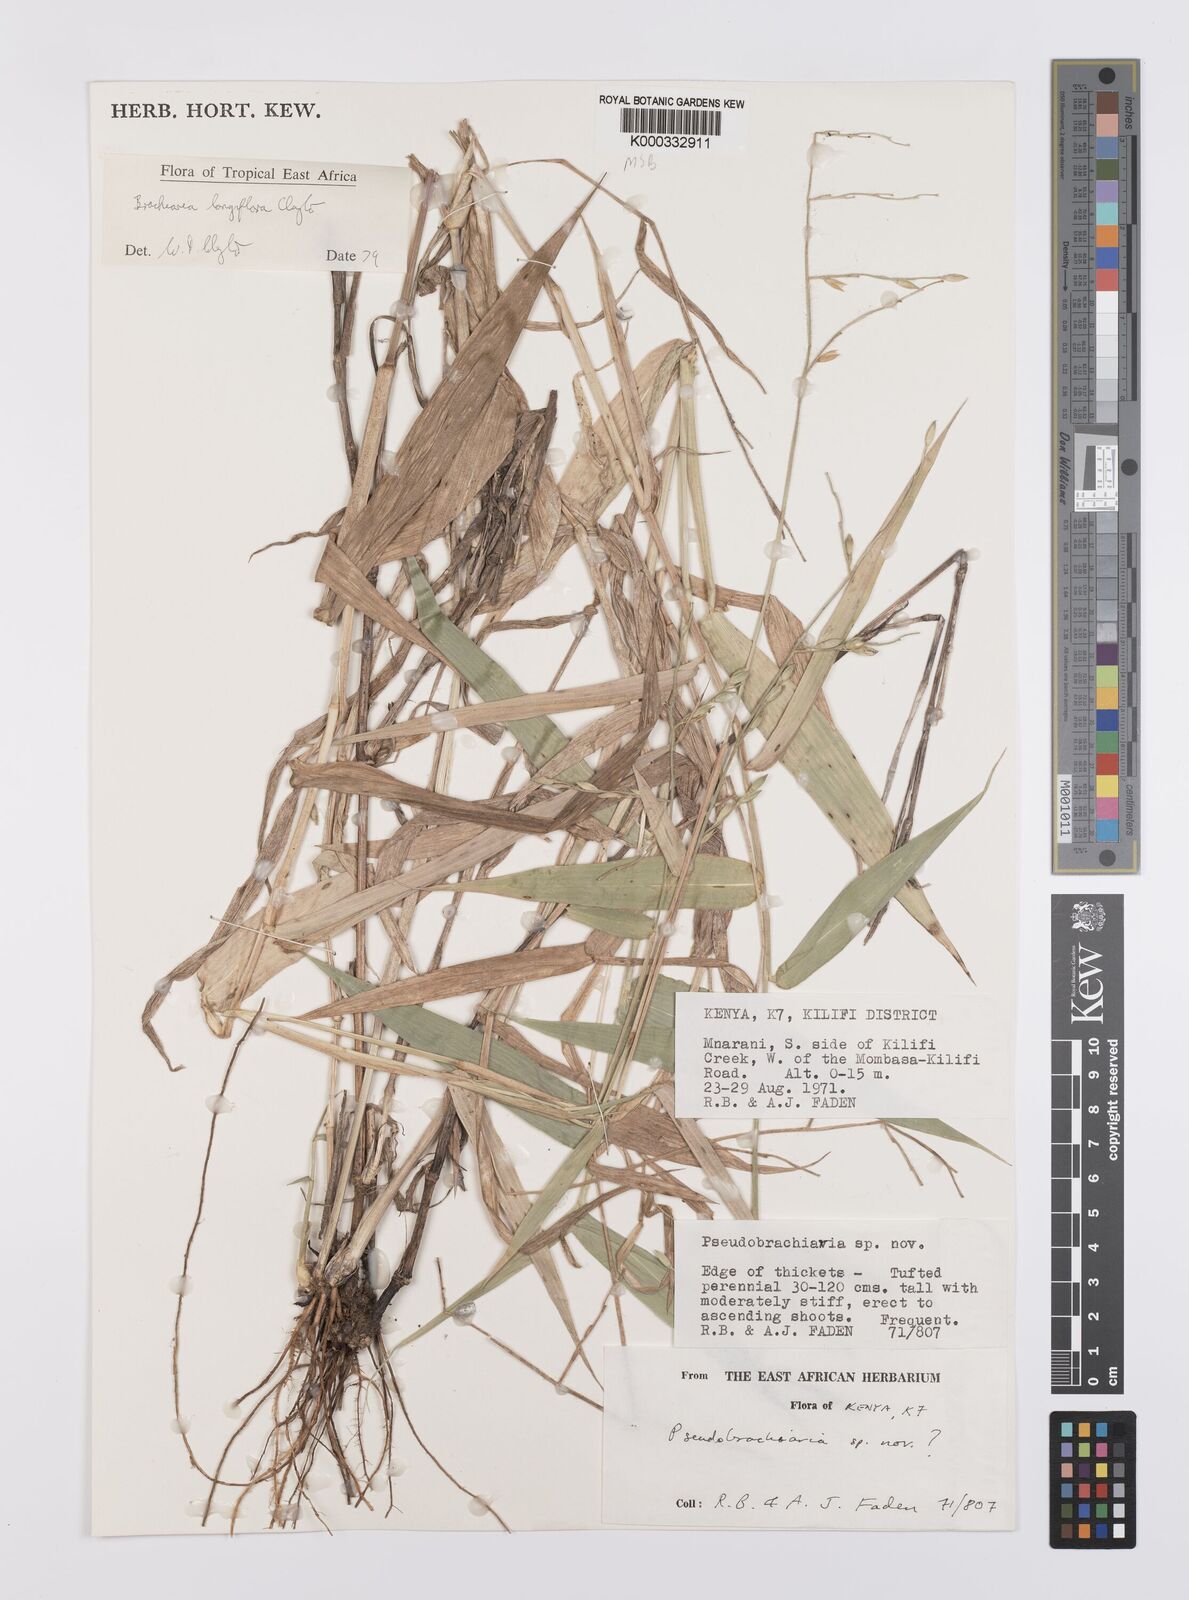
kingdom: Plantae
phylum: Tracheophyta
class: Liliopsida
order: Poales
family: Poaceae
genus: Urochloa
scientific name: Urochloa Brachiaria longiflora
